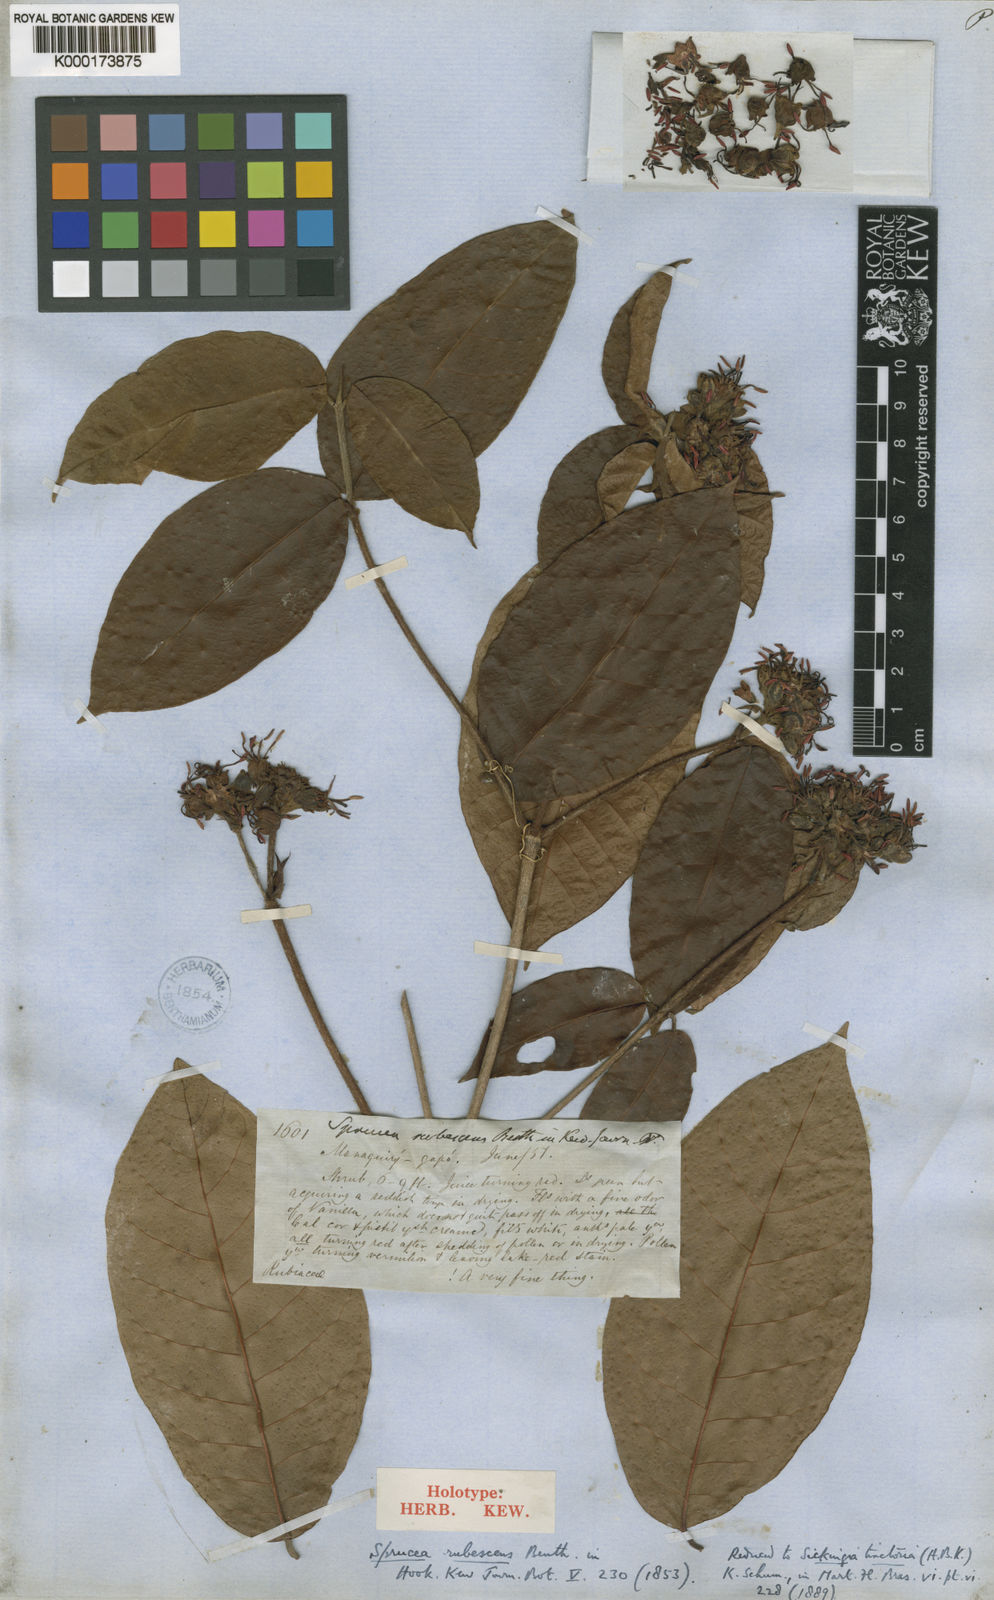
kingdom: Plantae
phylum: Tracheophyta
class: Magnoliopsida
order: Gentianales
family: Rubiaceae
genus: Simira
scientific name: Simira rubescens
